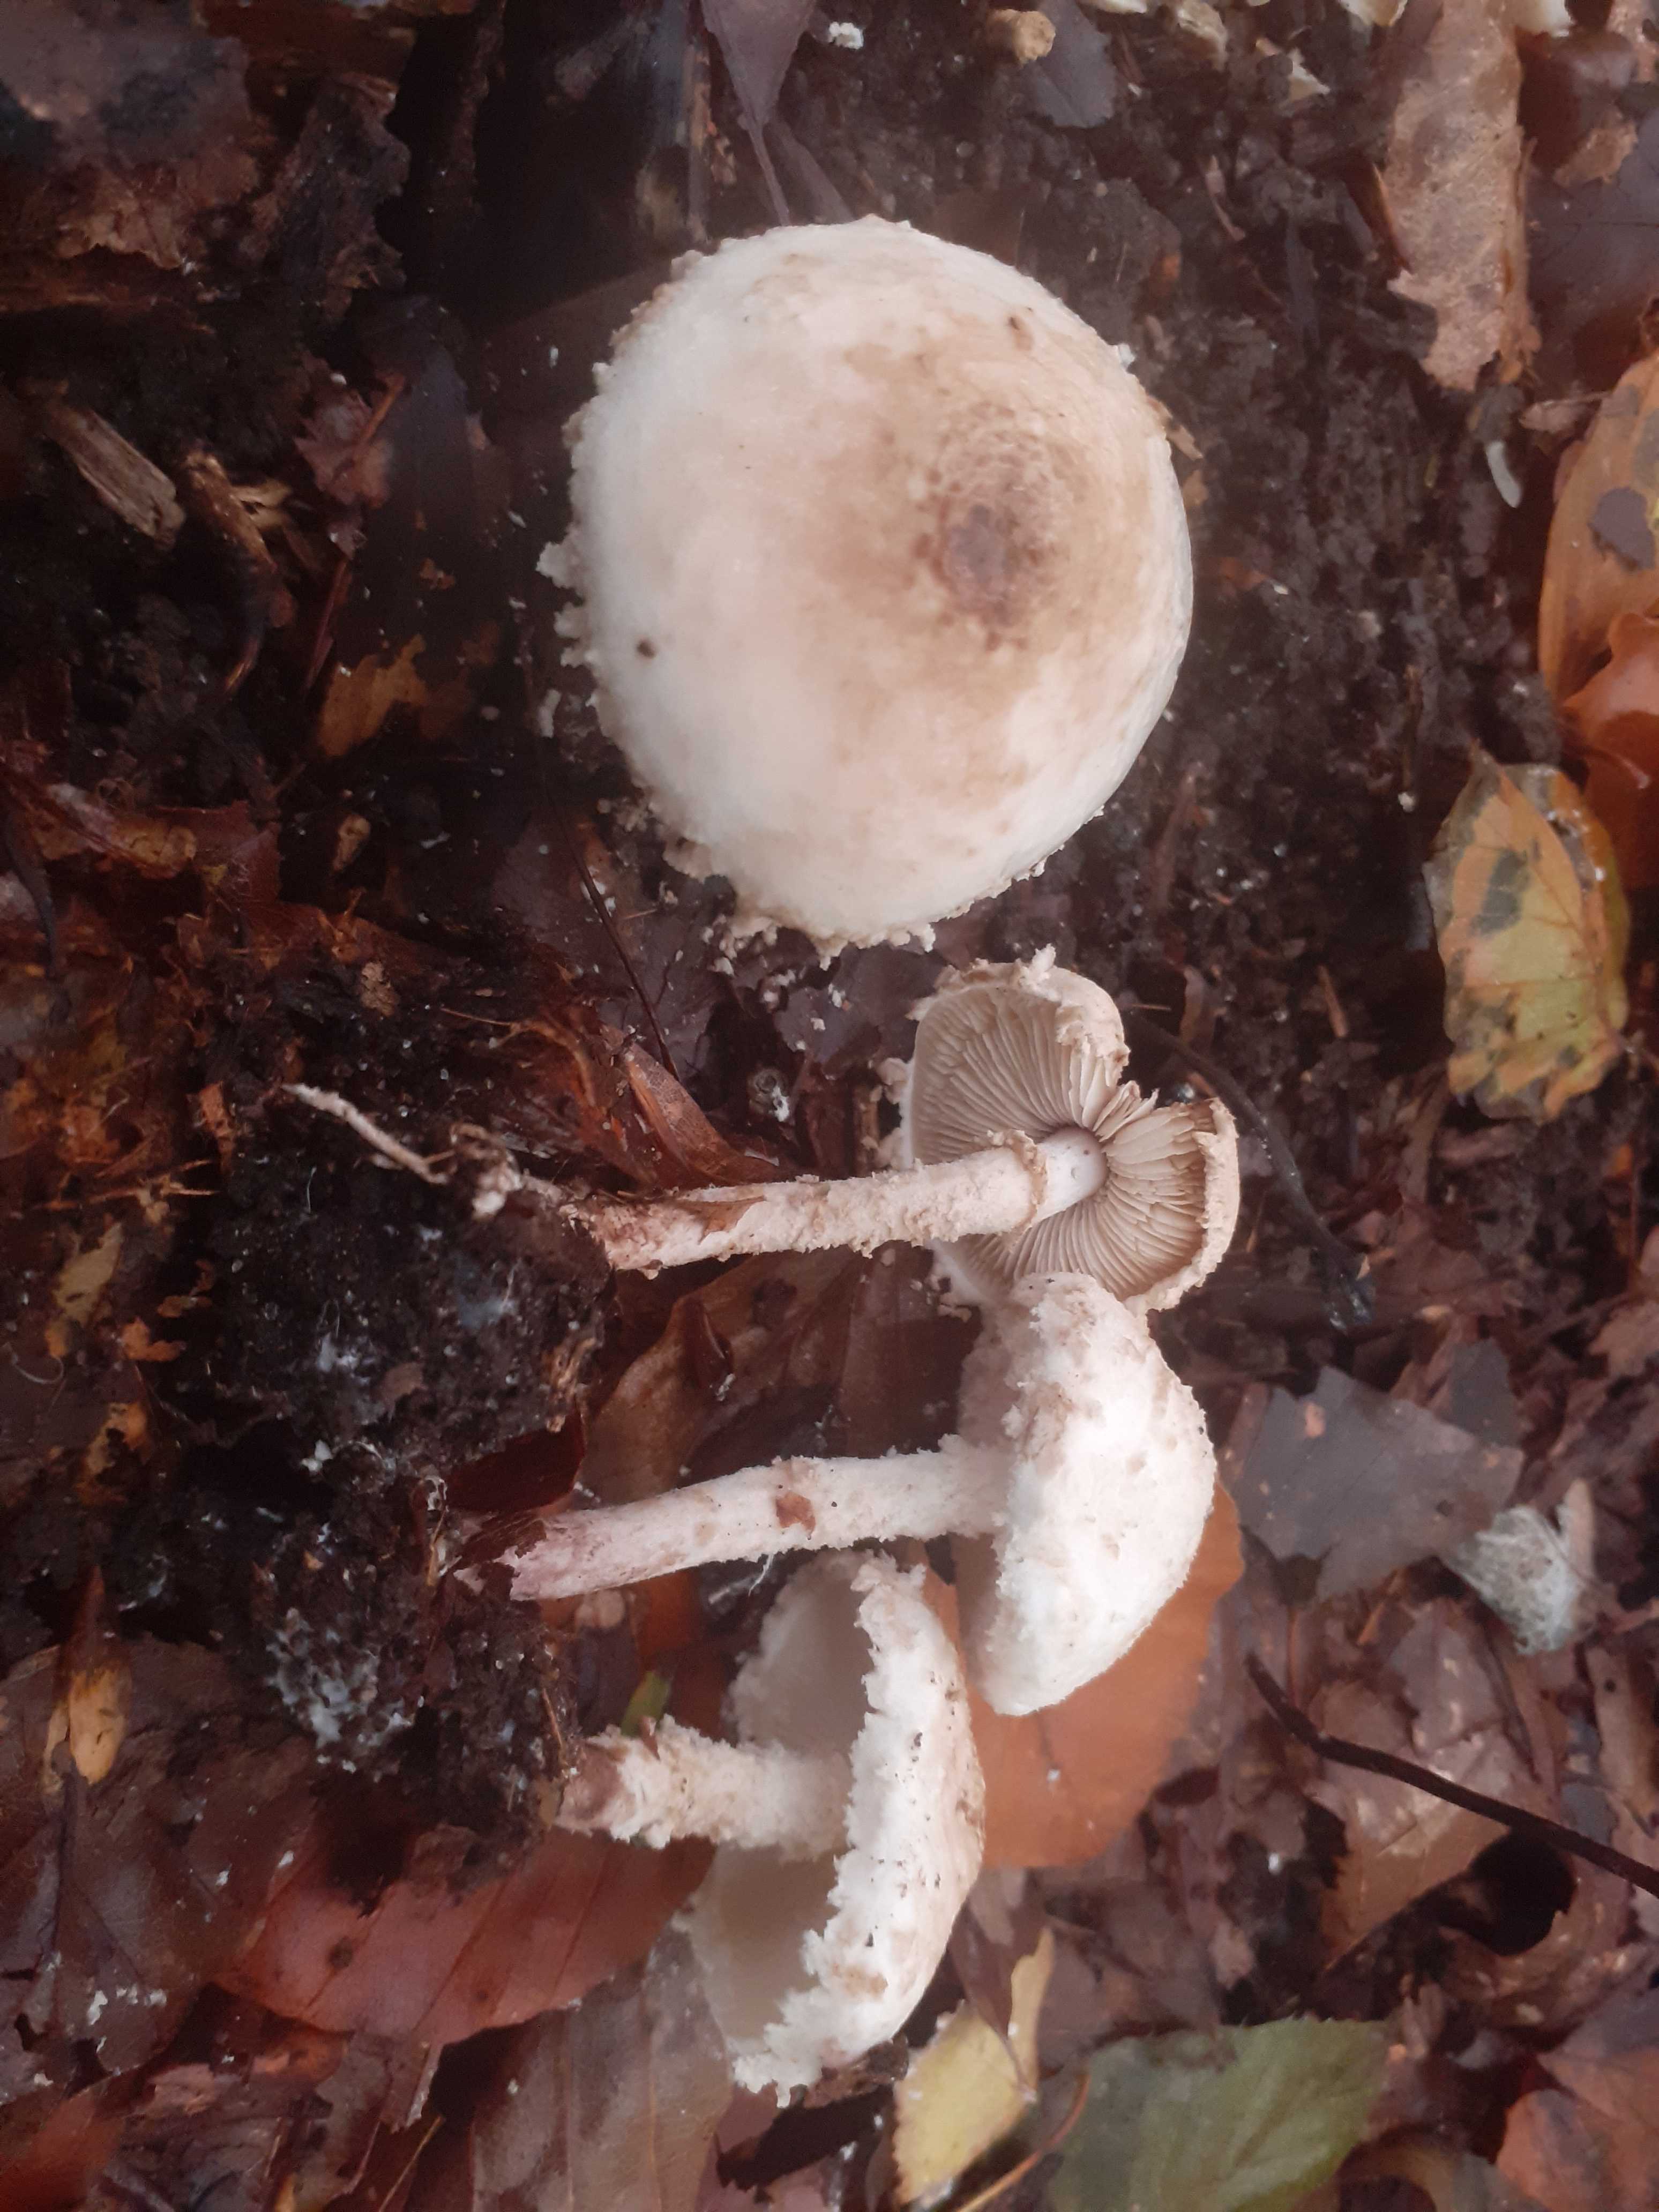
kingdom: Fungi
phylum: Basidiomycota
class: Agaricomycetes
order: Agaricales
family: Agaricaceae
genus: Cystolepiota
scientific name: Cystolepiota adulterina
